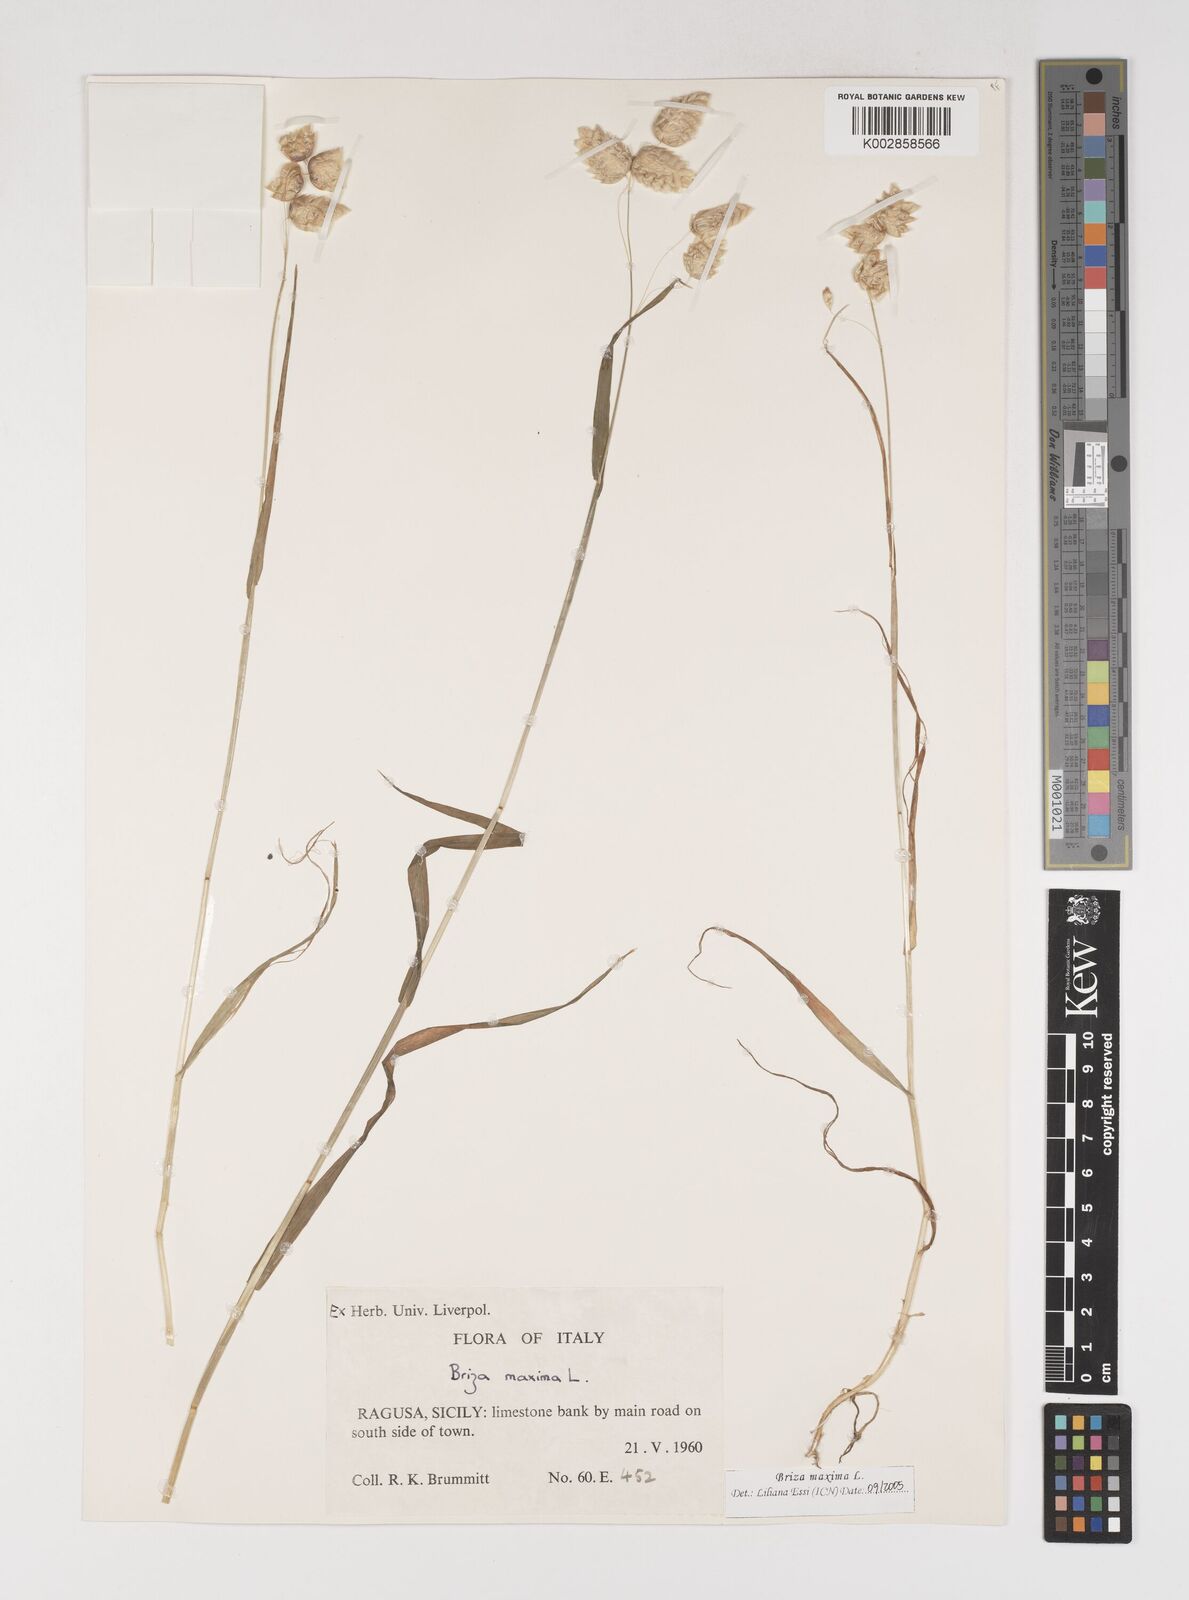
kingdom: Plantae
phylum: Tracheophyta
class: Liliopsida
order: Poales
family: Poaceae
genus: Briza
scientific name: Briza maxima
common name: Big quakinggrass
